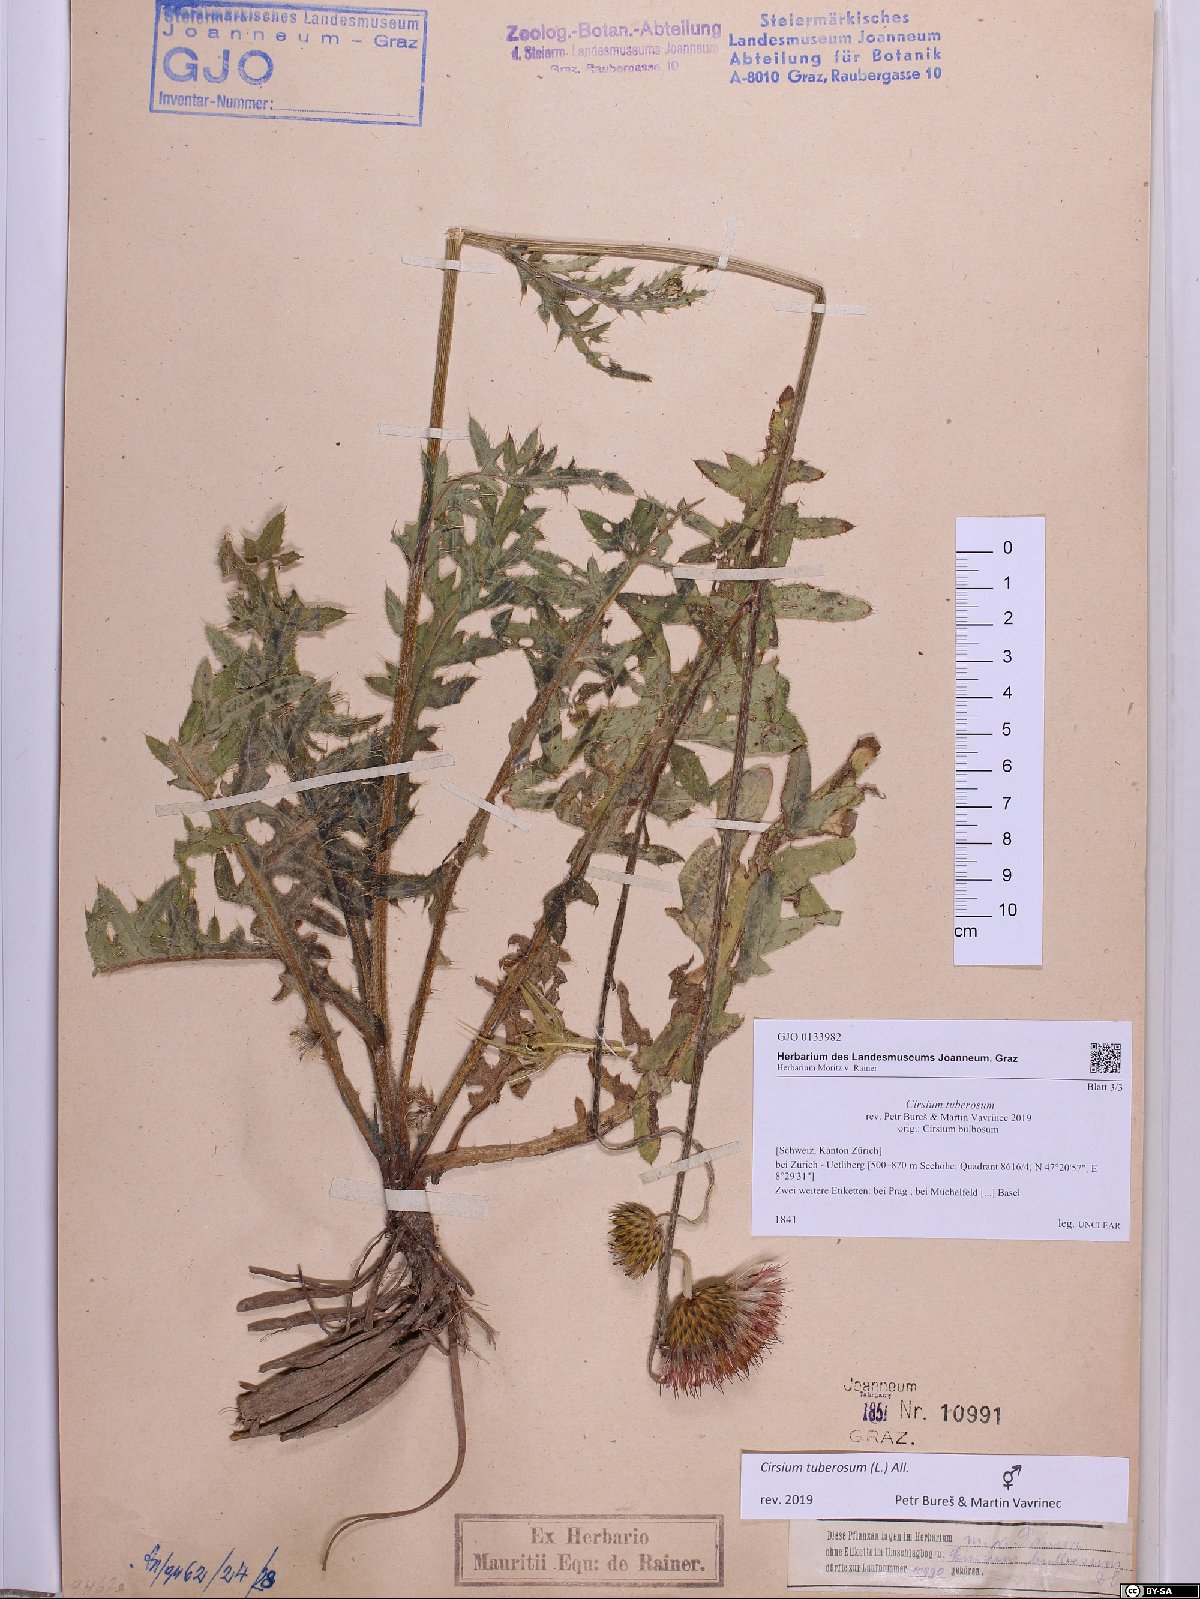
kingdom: Plantae
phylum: Tracheophyta
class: Magnoliopsida
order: Asterales
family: Asteraceae
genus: Cirsium
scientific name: Cirsium tuberosum
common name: Tuberous thistle
